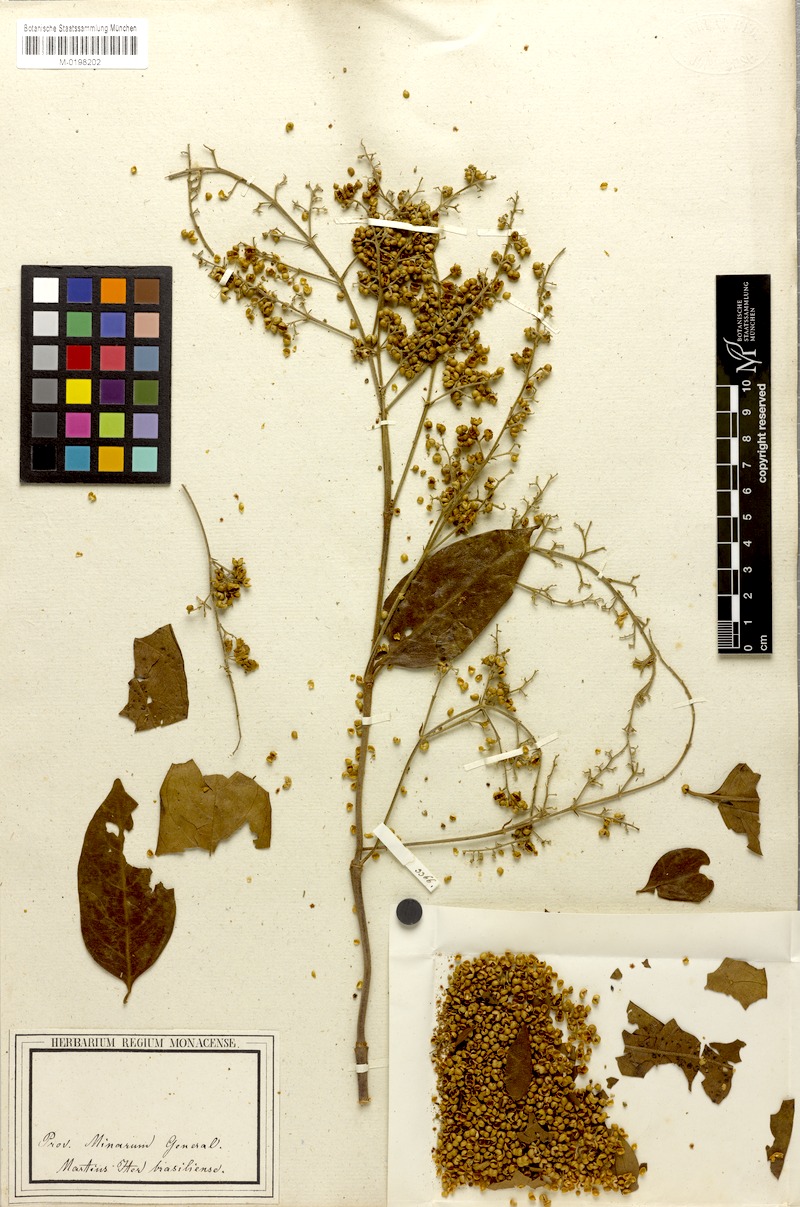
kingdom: Plantae
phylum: Tracheophyta
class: Magnoliopsida
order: Gentianales
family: Rubiaceae
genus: Molopanthera
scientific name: Molopanthera paniculata
